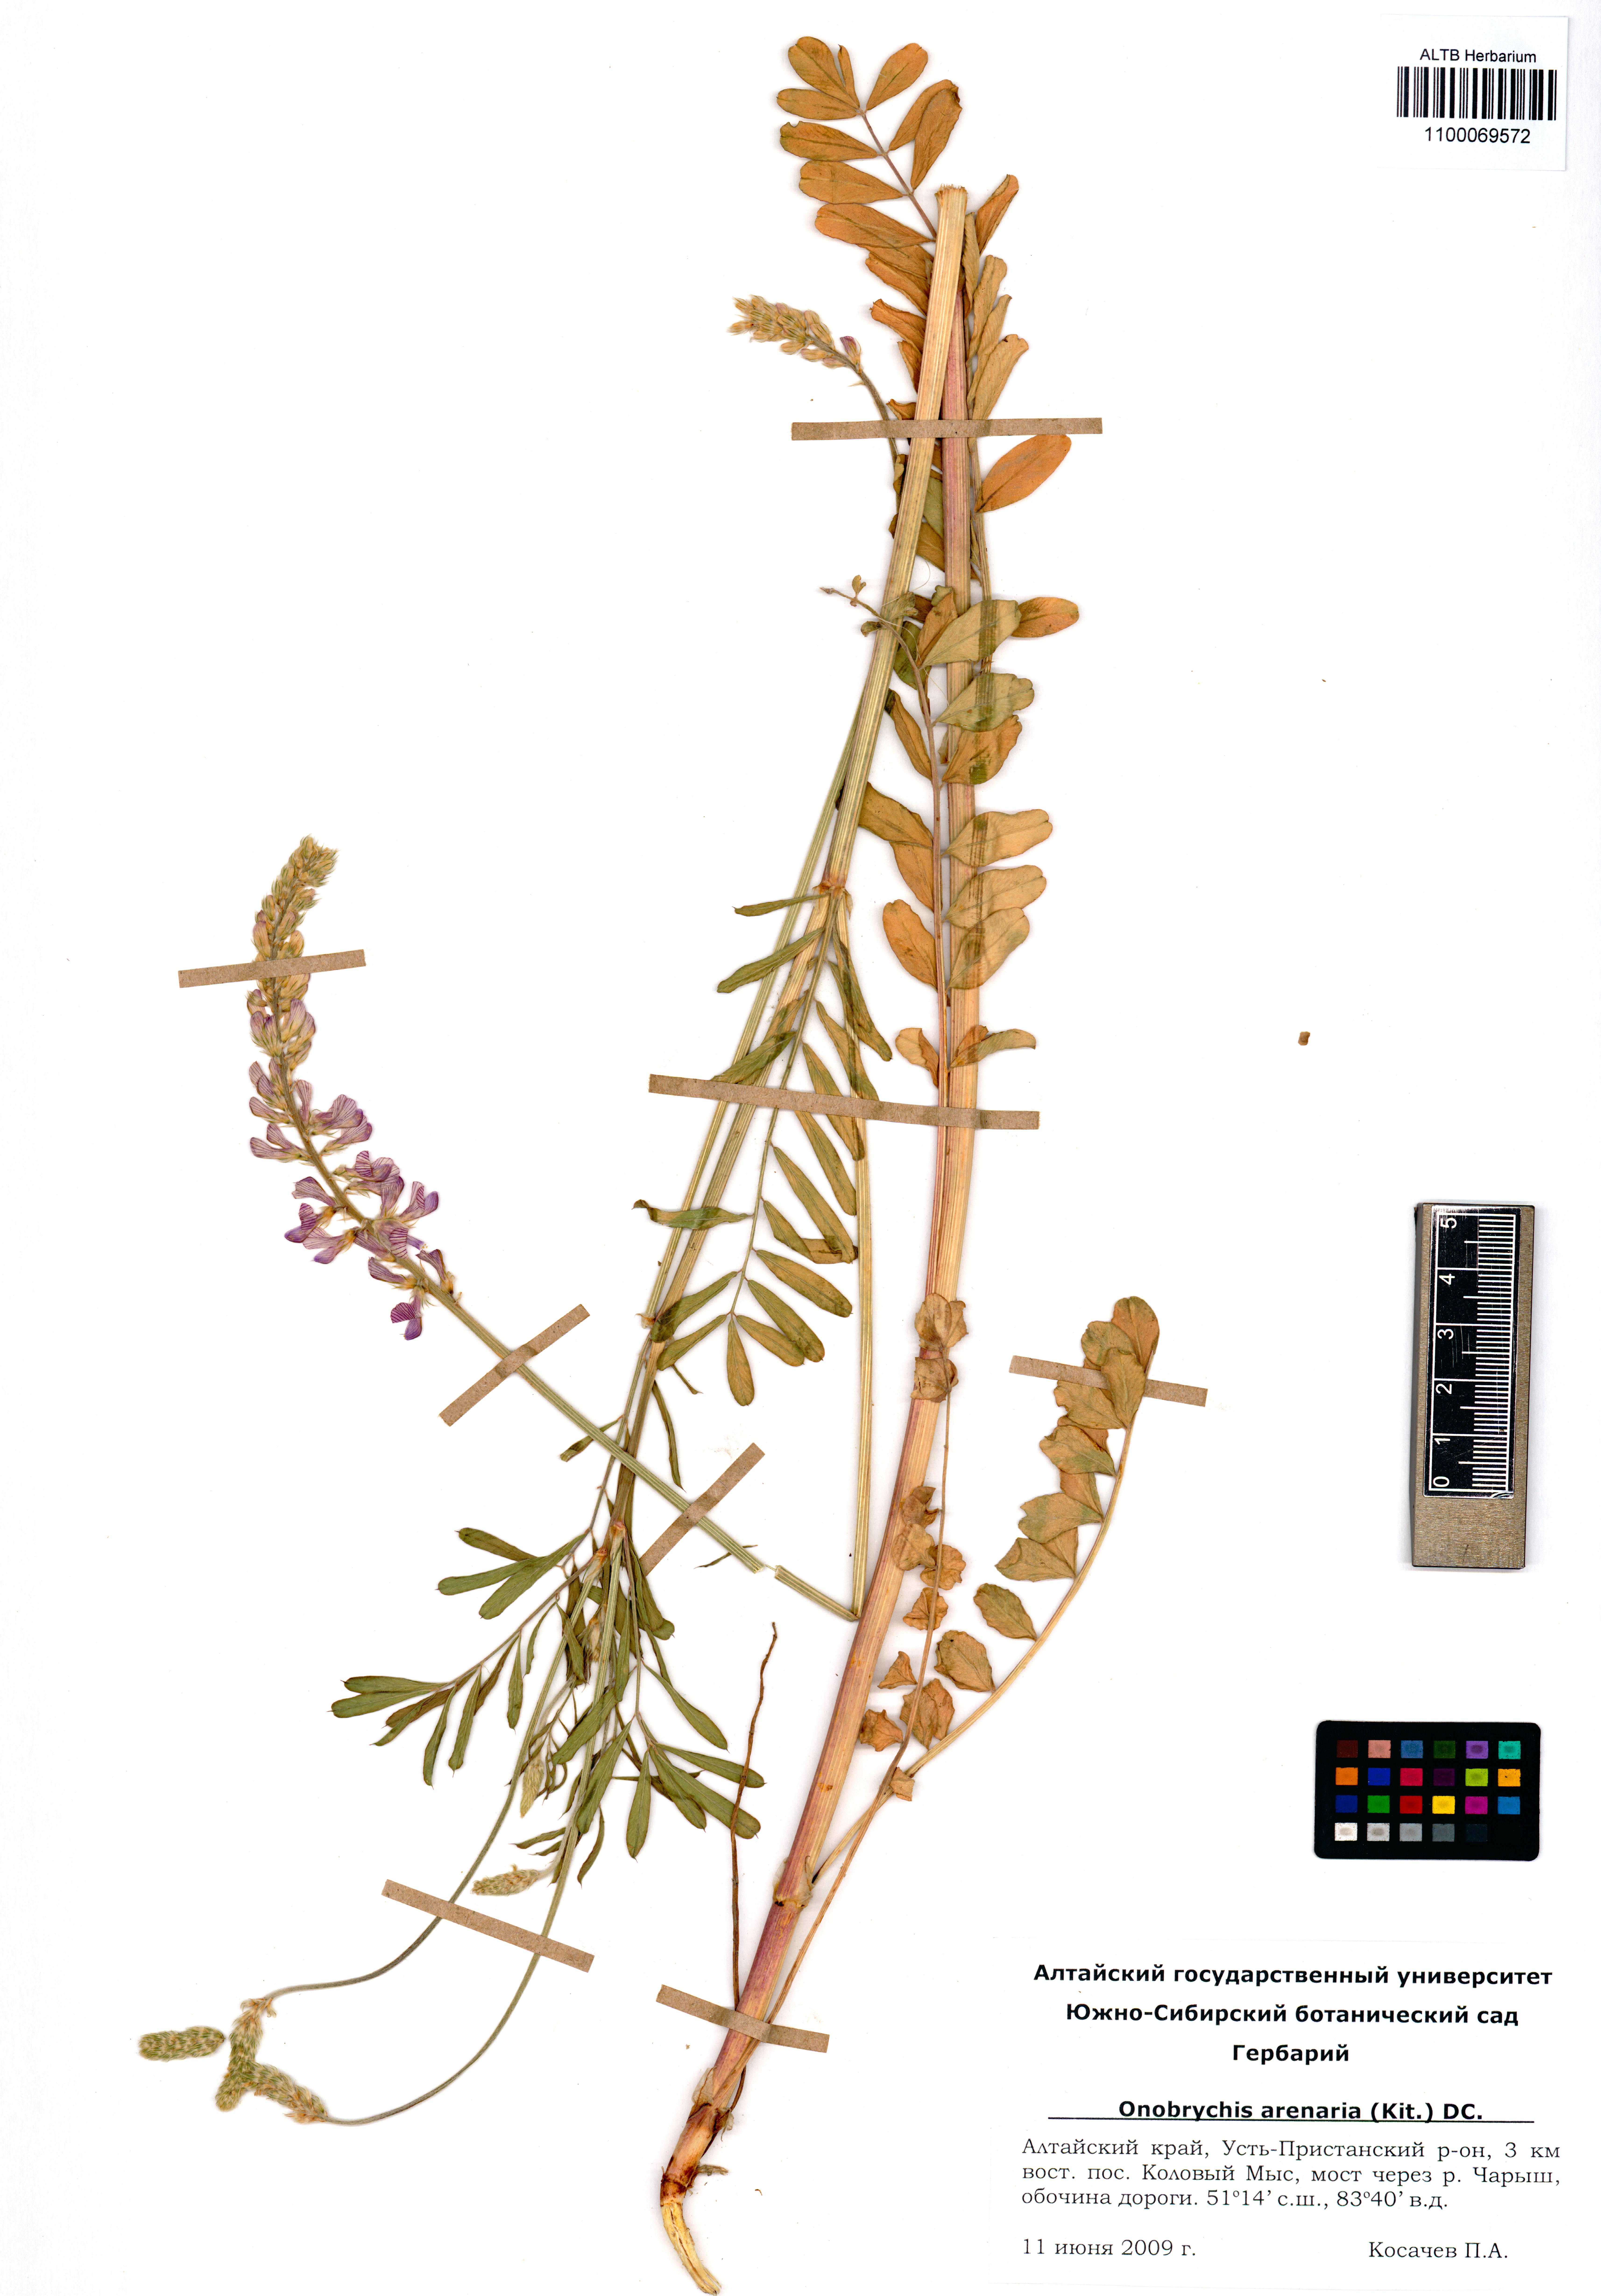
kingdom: Plantae
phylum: Tracheophyta
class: Magnoliopsida
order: Fabales
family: Fabaceae
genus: Onobrychis
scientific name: Onobrychis arenaria
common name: Sand esparcet
